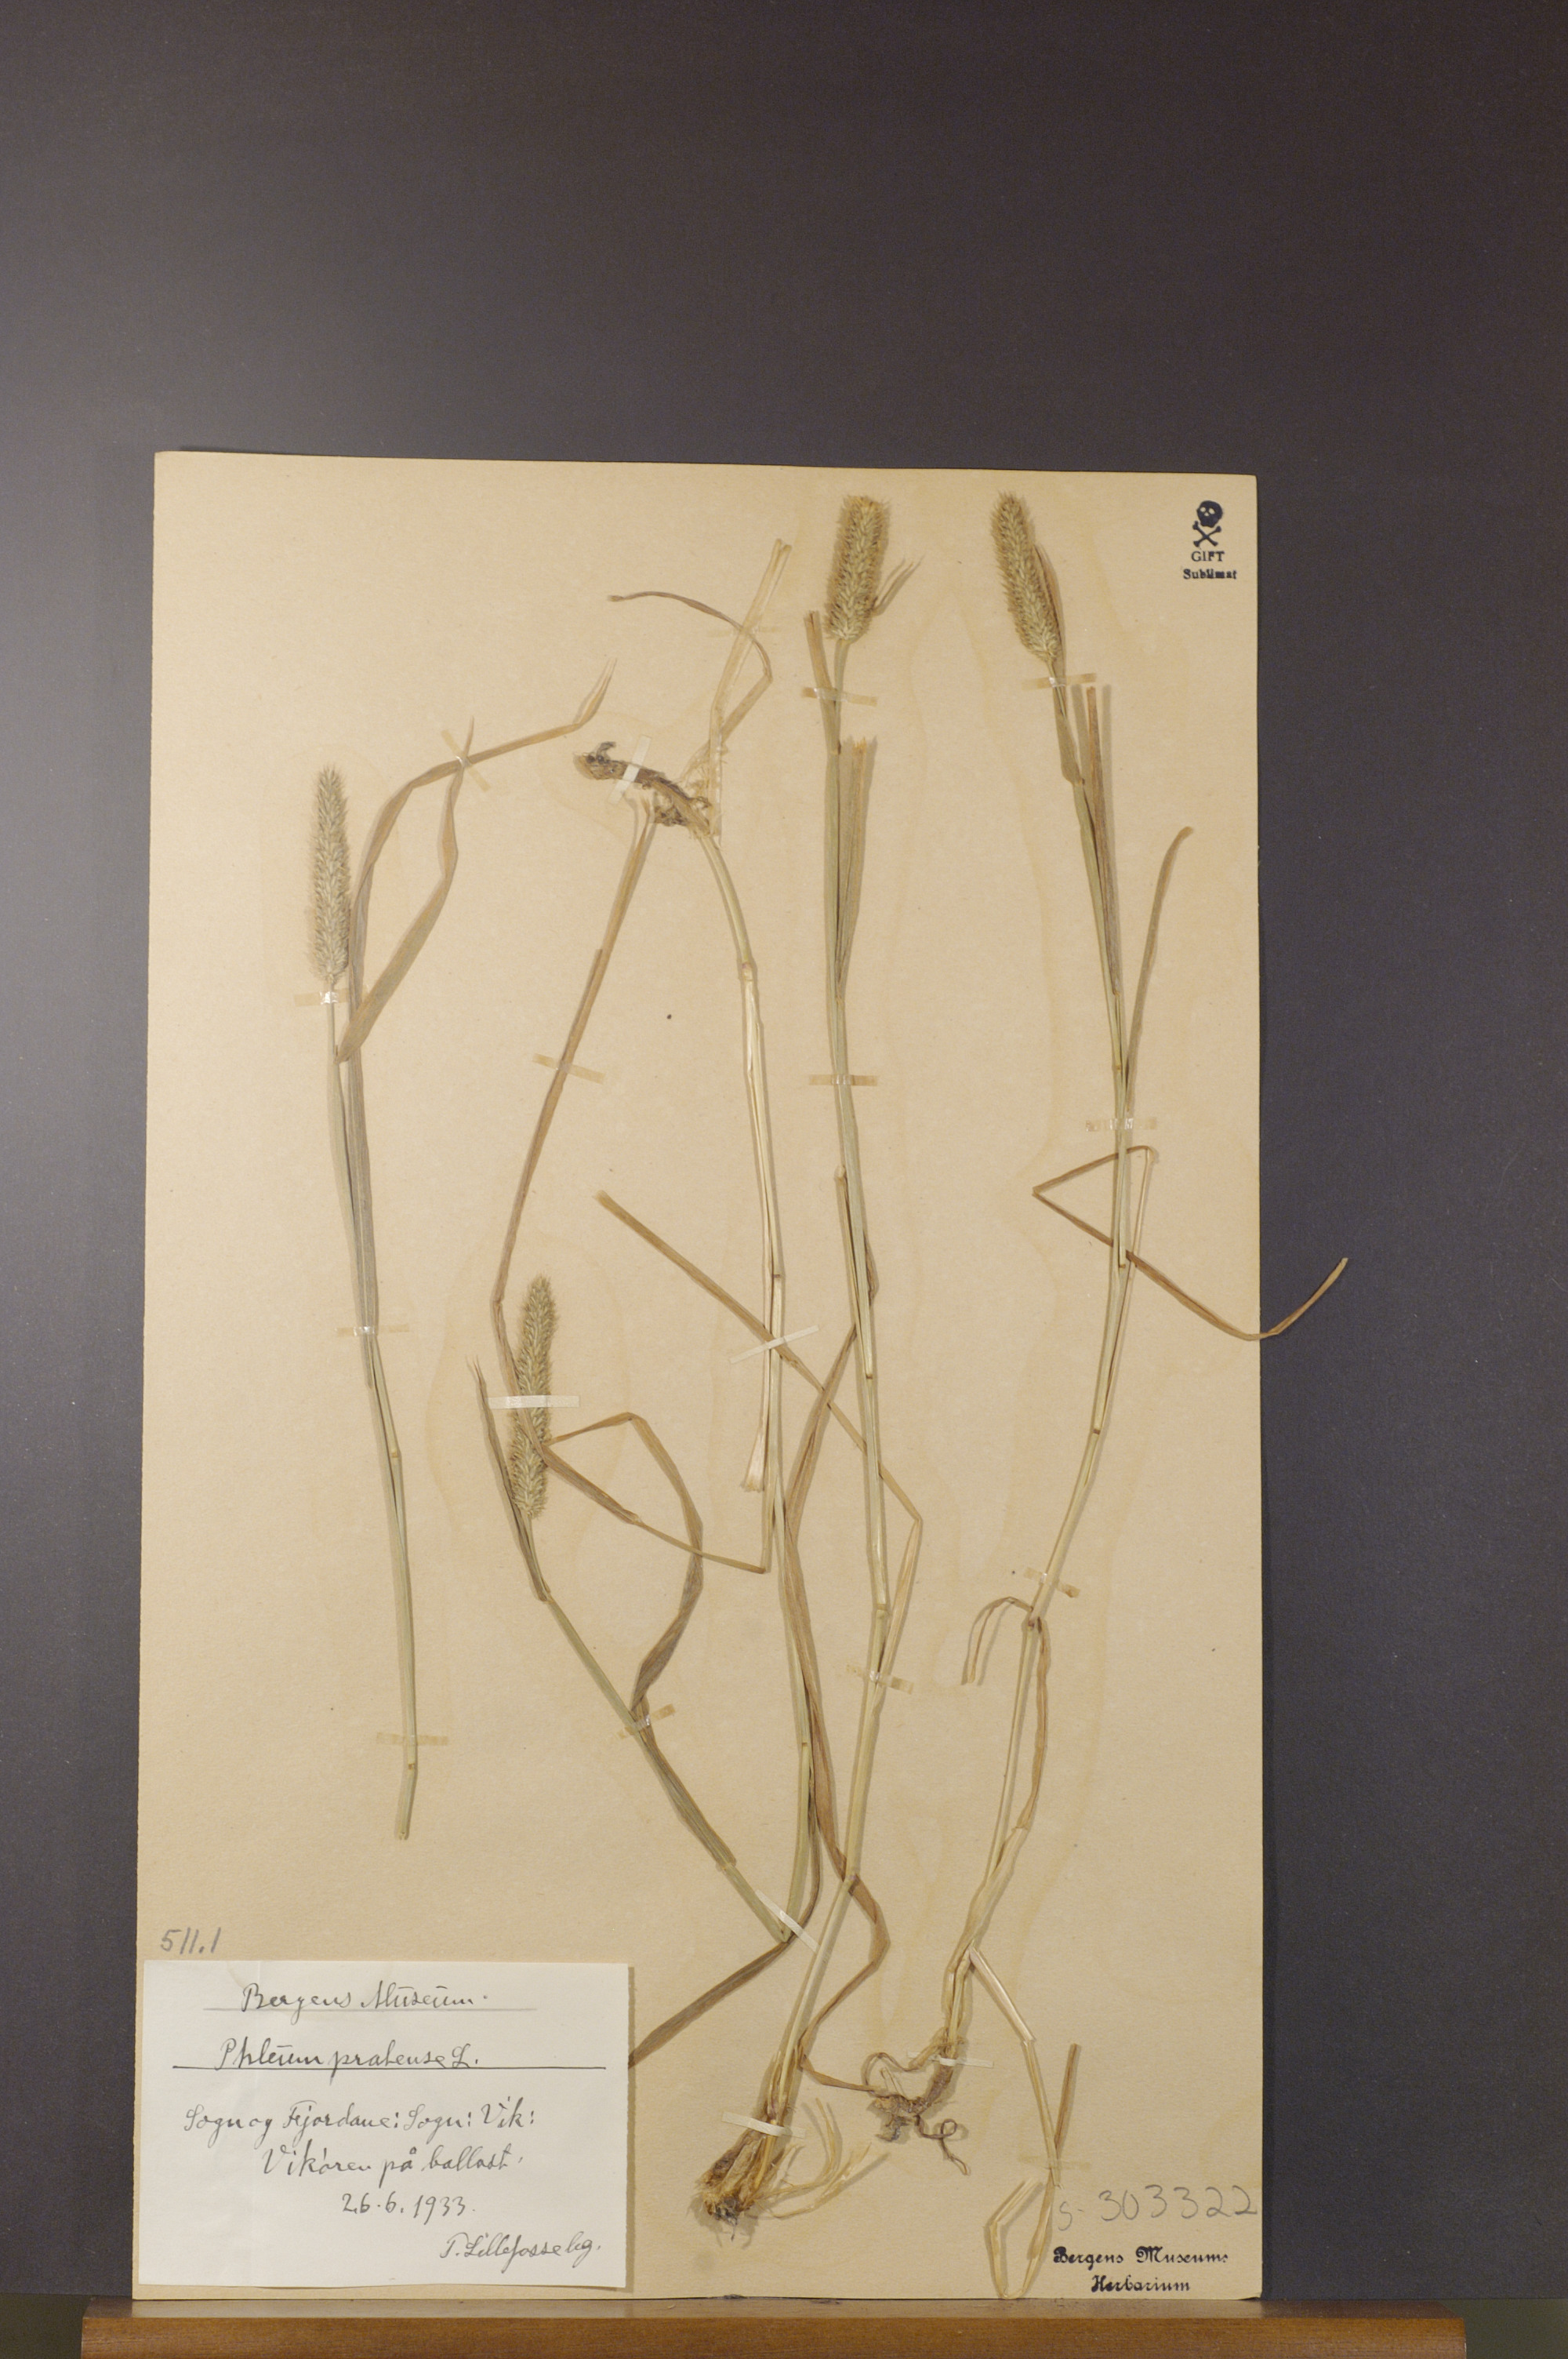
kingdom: Plantae
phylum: Tracheophyta
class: Liliopsida
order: Poales
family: Poaceae
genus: Phleum
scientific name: Phleum pratense
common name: Timothy grass
